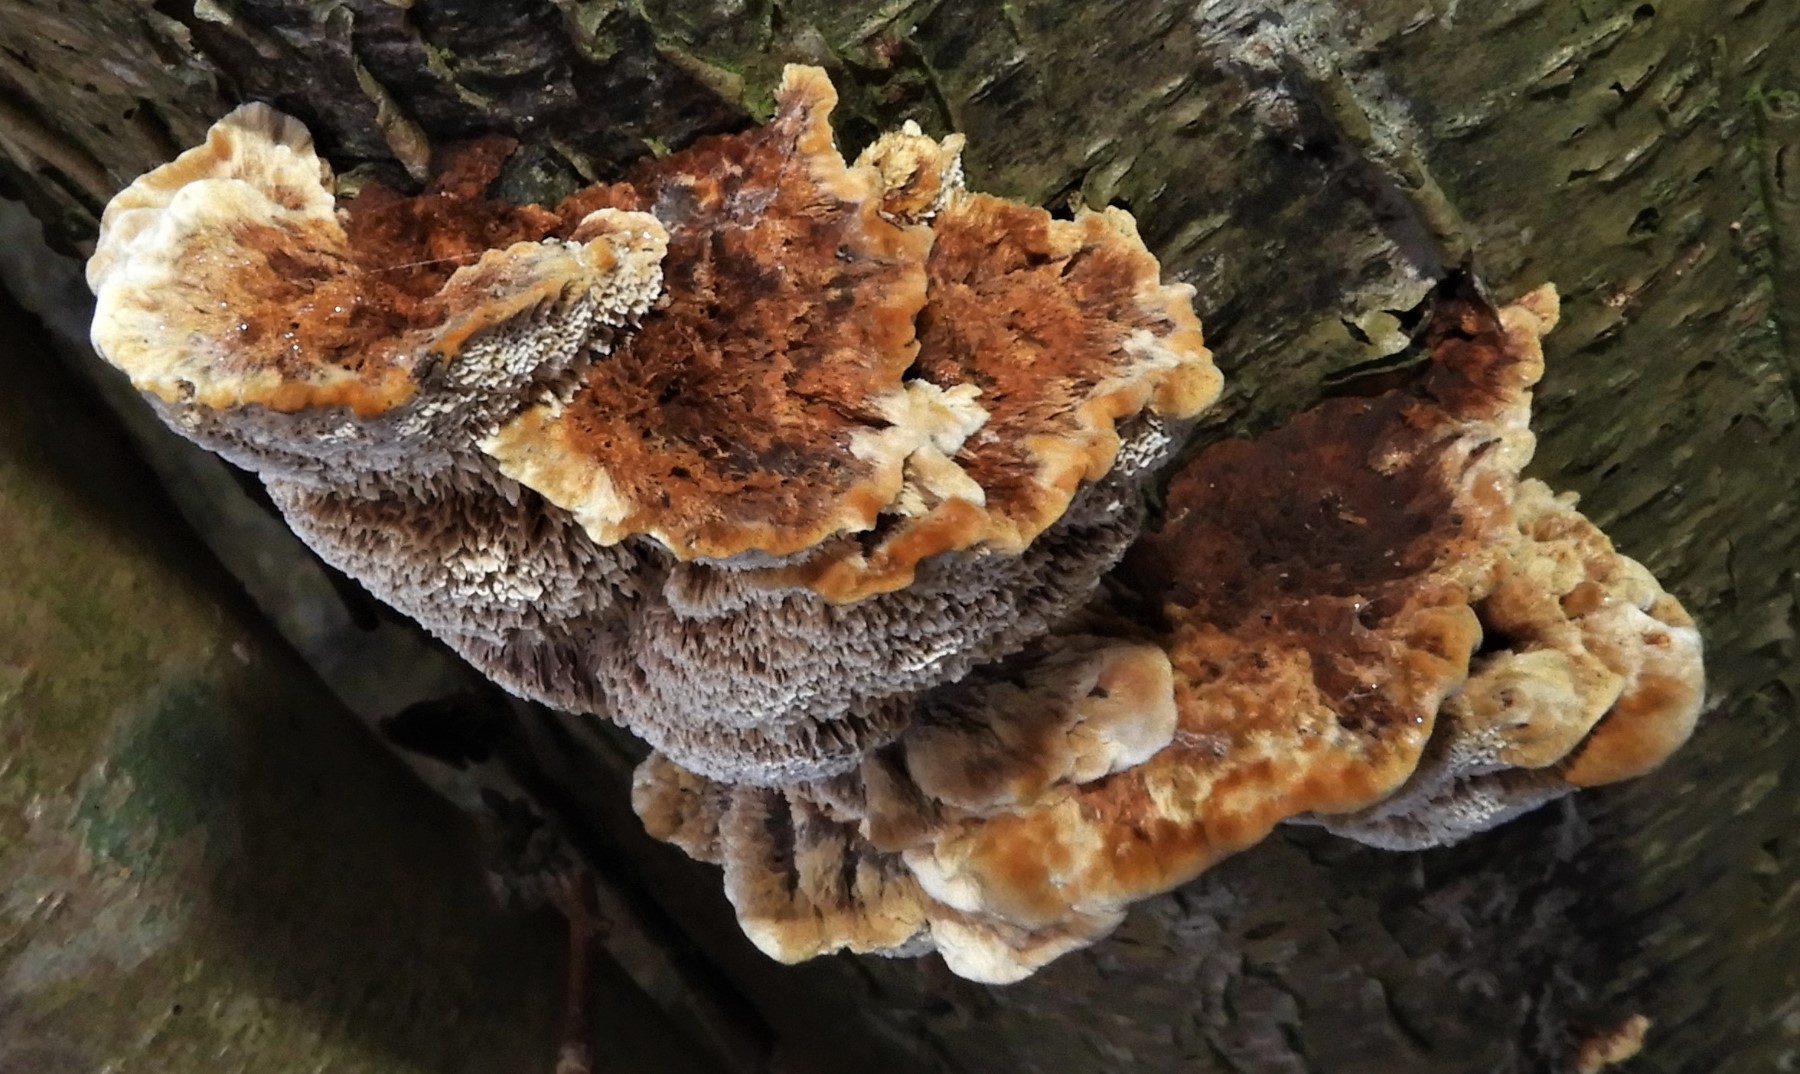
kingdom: Fungi
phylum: Basidiomycota
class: Agaricomycetes
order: Hymenochaetales
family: Hymenochaetaceae
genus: Mensularia
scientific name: Mensularia nodulosa
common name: bøge-spejlporesvamp
